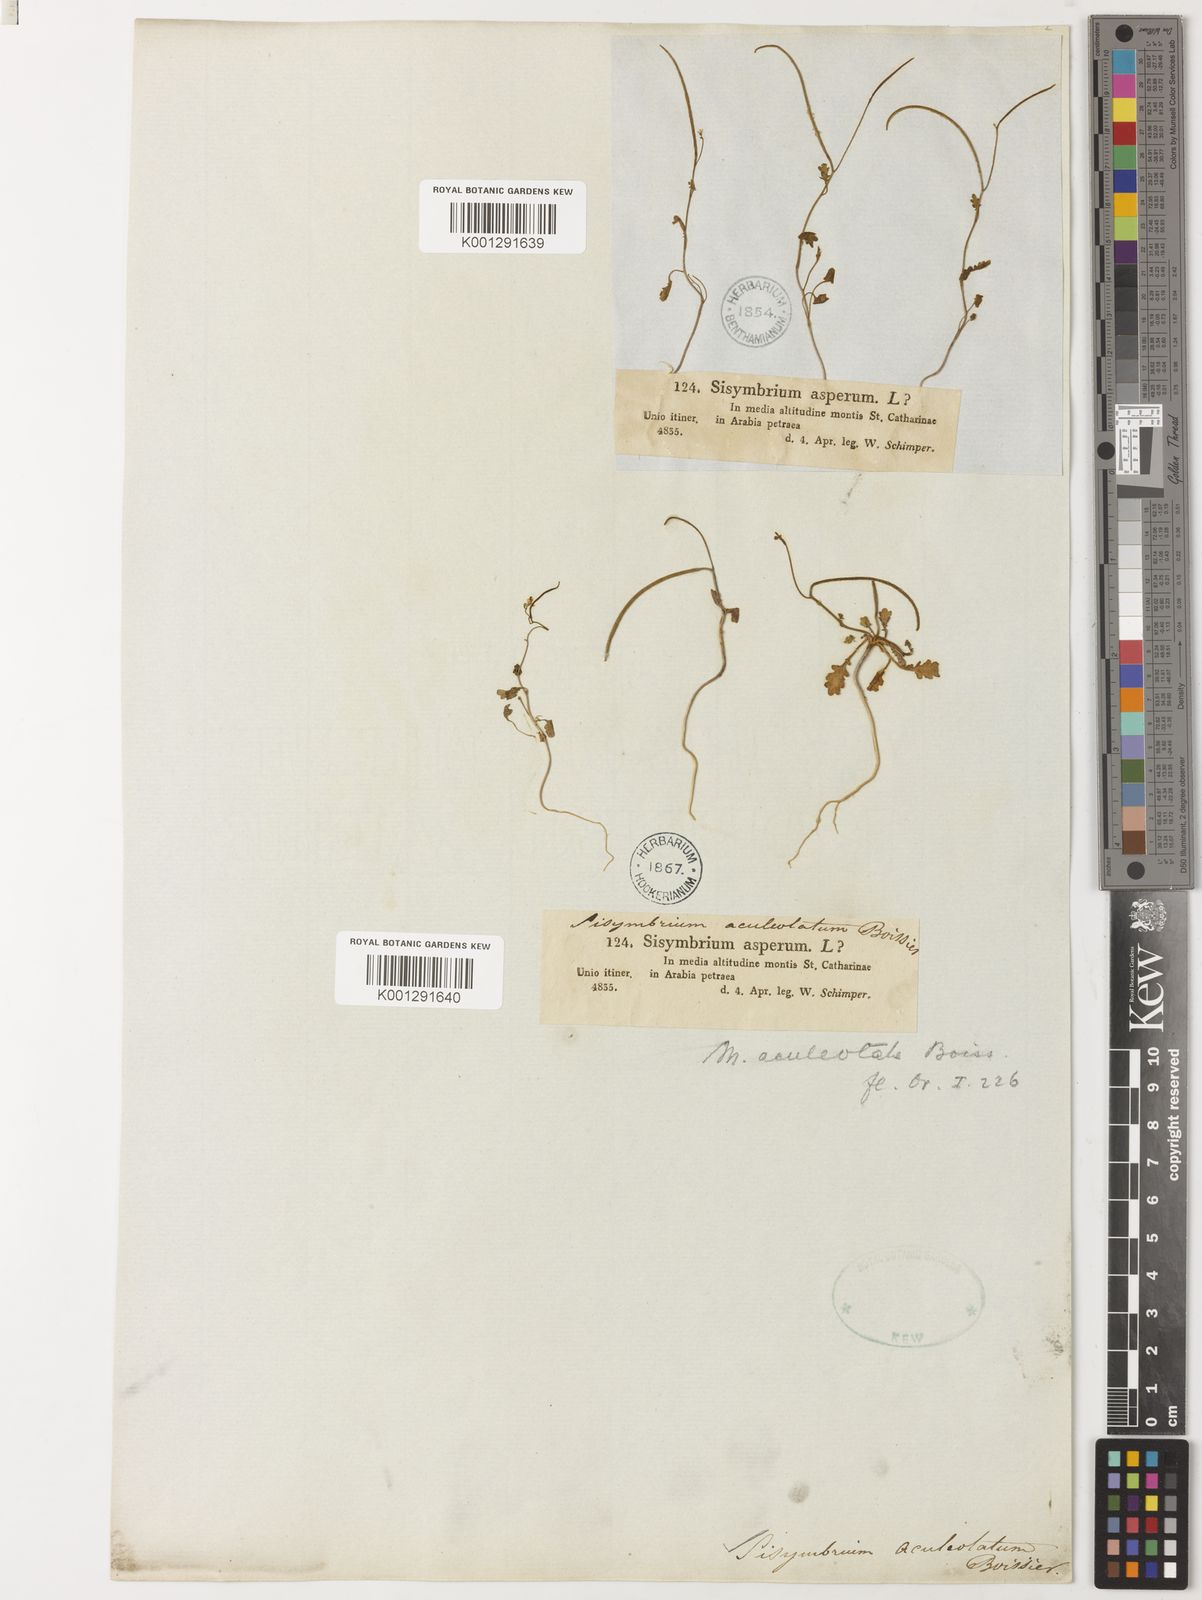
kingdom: Plantae
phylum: Tracheophyta
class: Magnoliopsida
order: Brassicales
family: Brassicaceae
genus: Sisymbrium
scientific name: Sisymbrium aculeolatum
